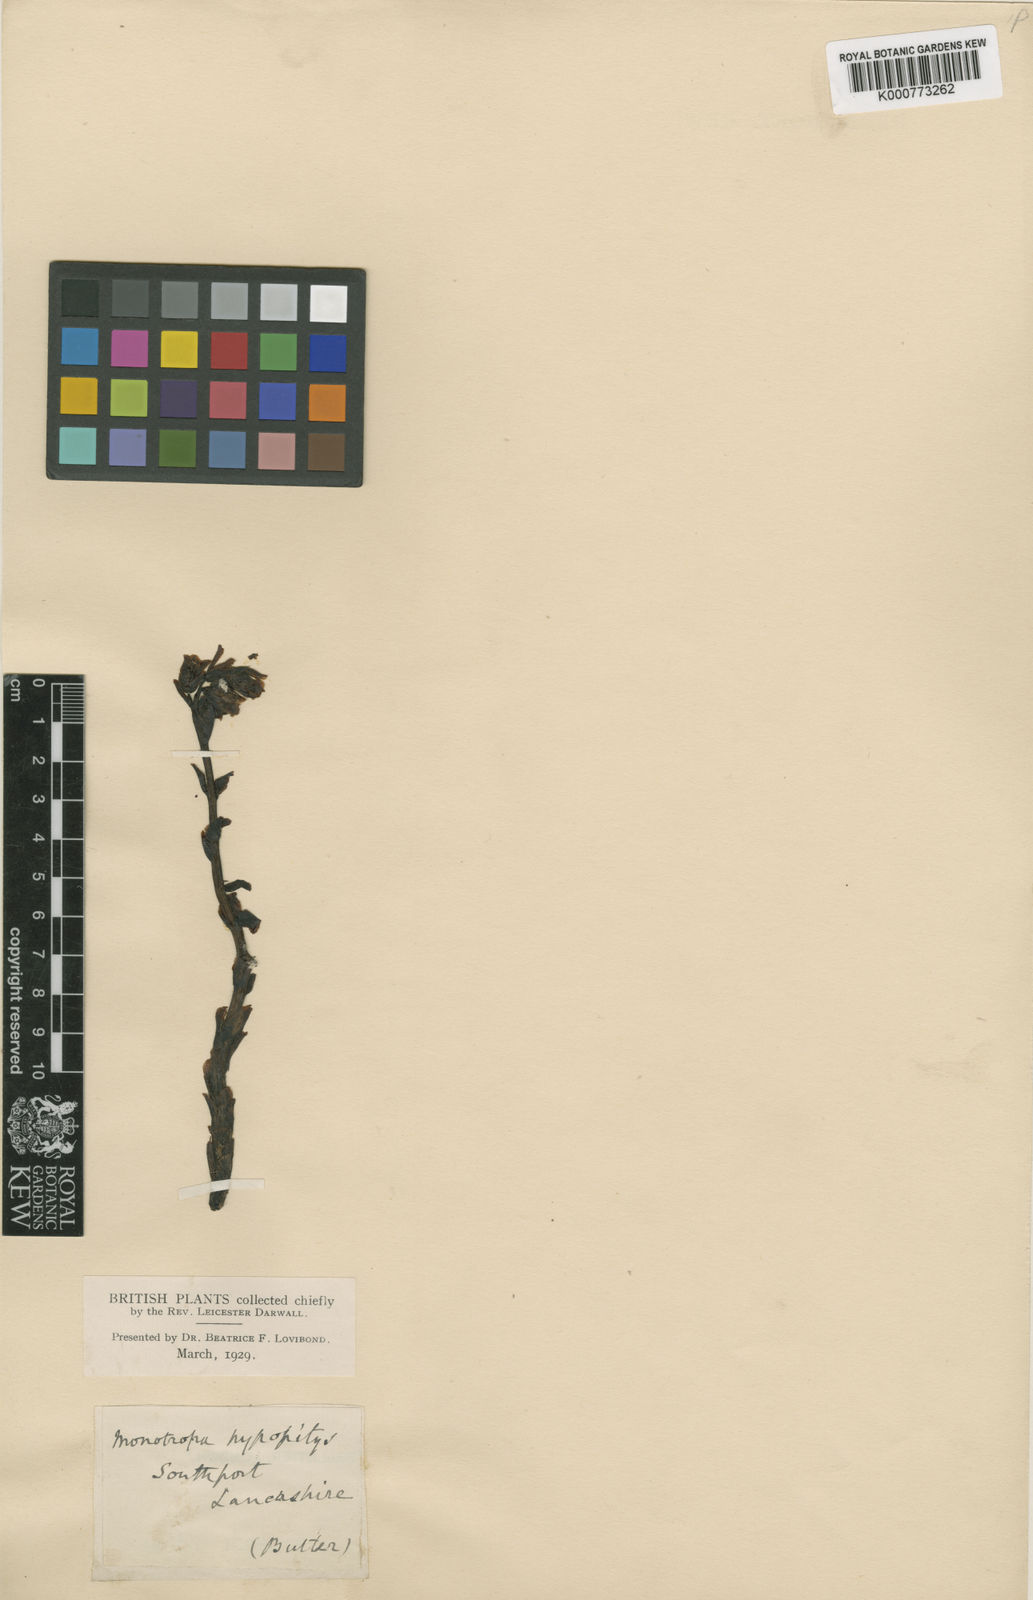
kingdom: Plantae
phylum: Tracheophyta
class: Magnoliopsida
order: Ericales
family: Ericaceae
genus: Monotropa
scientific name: Monotropa
